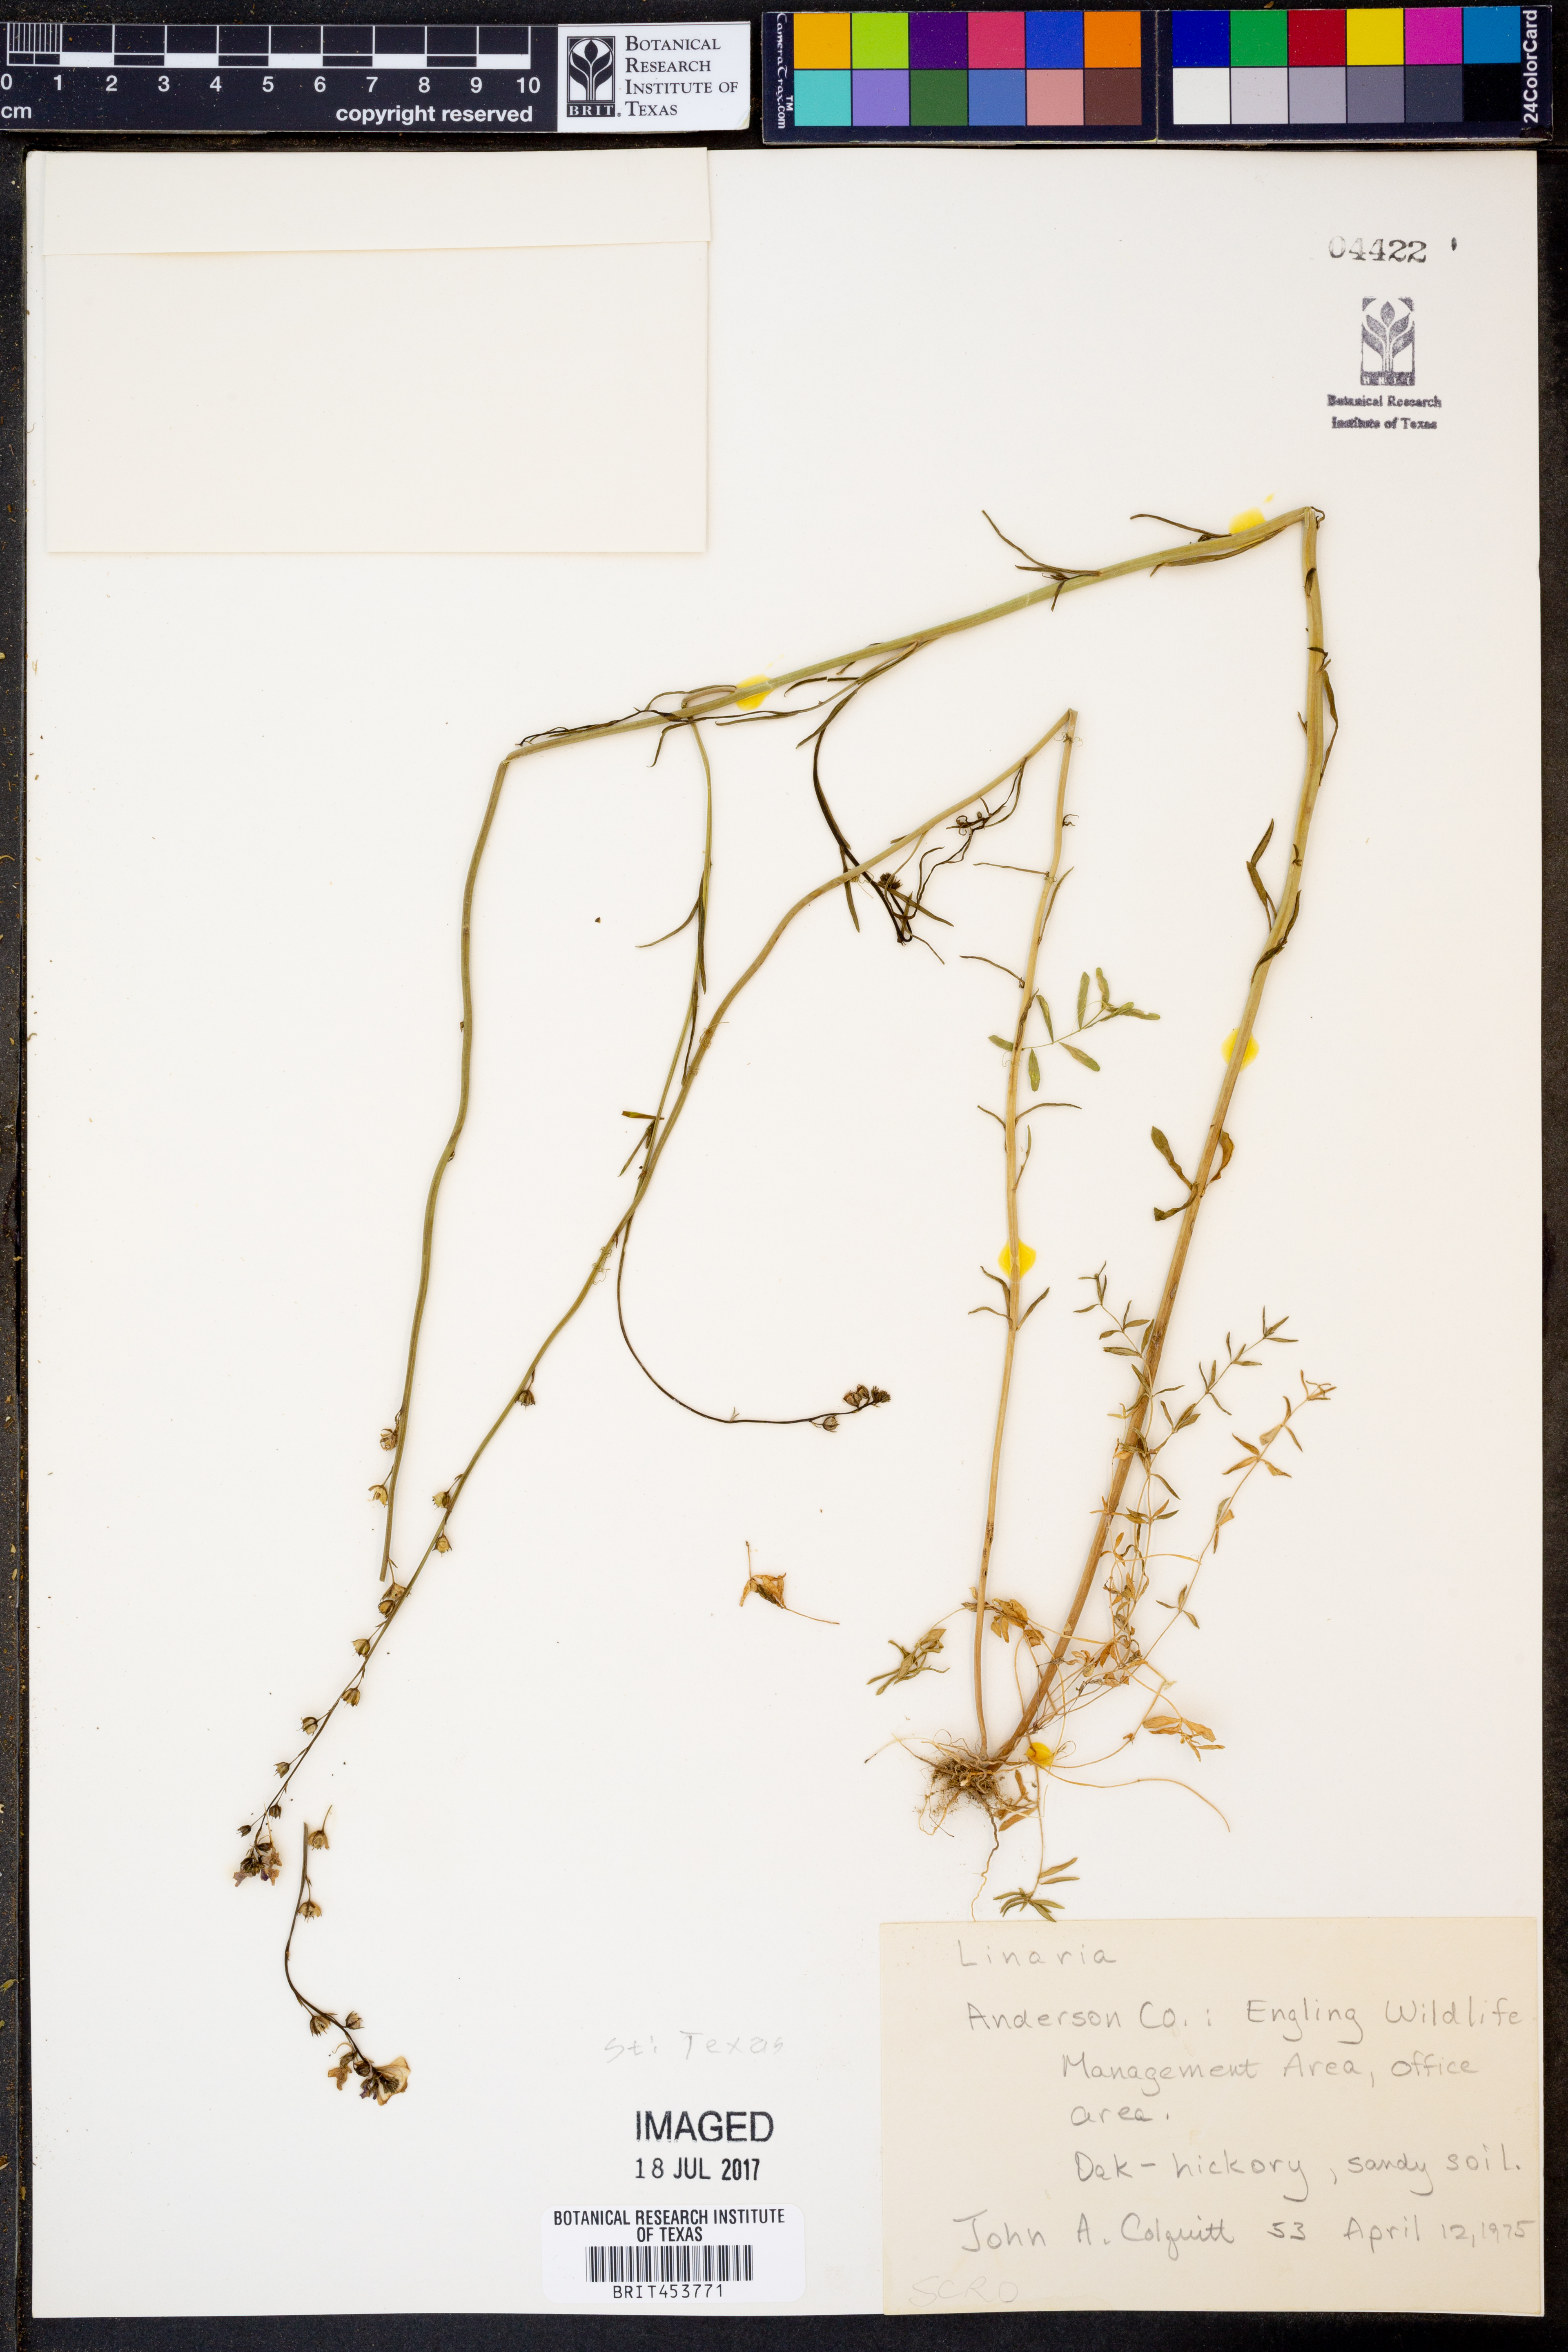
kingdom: Plantae
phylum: Tracheophyta
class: Magnoliopsida
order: Lamiales
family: Plantaginaceae
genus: Linaria
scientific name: Linaria
